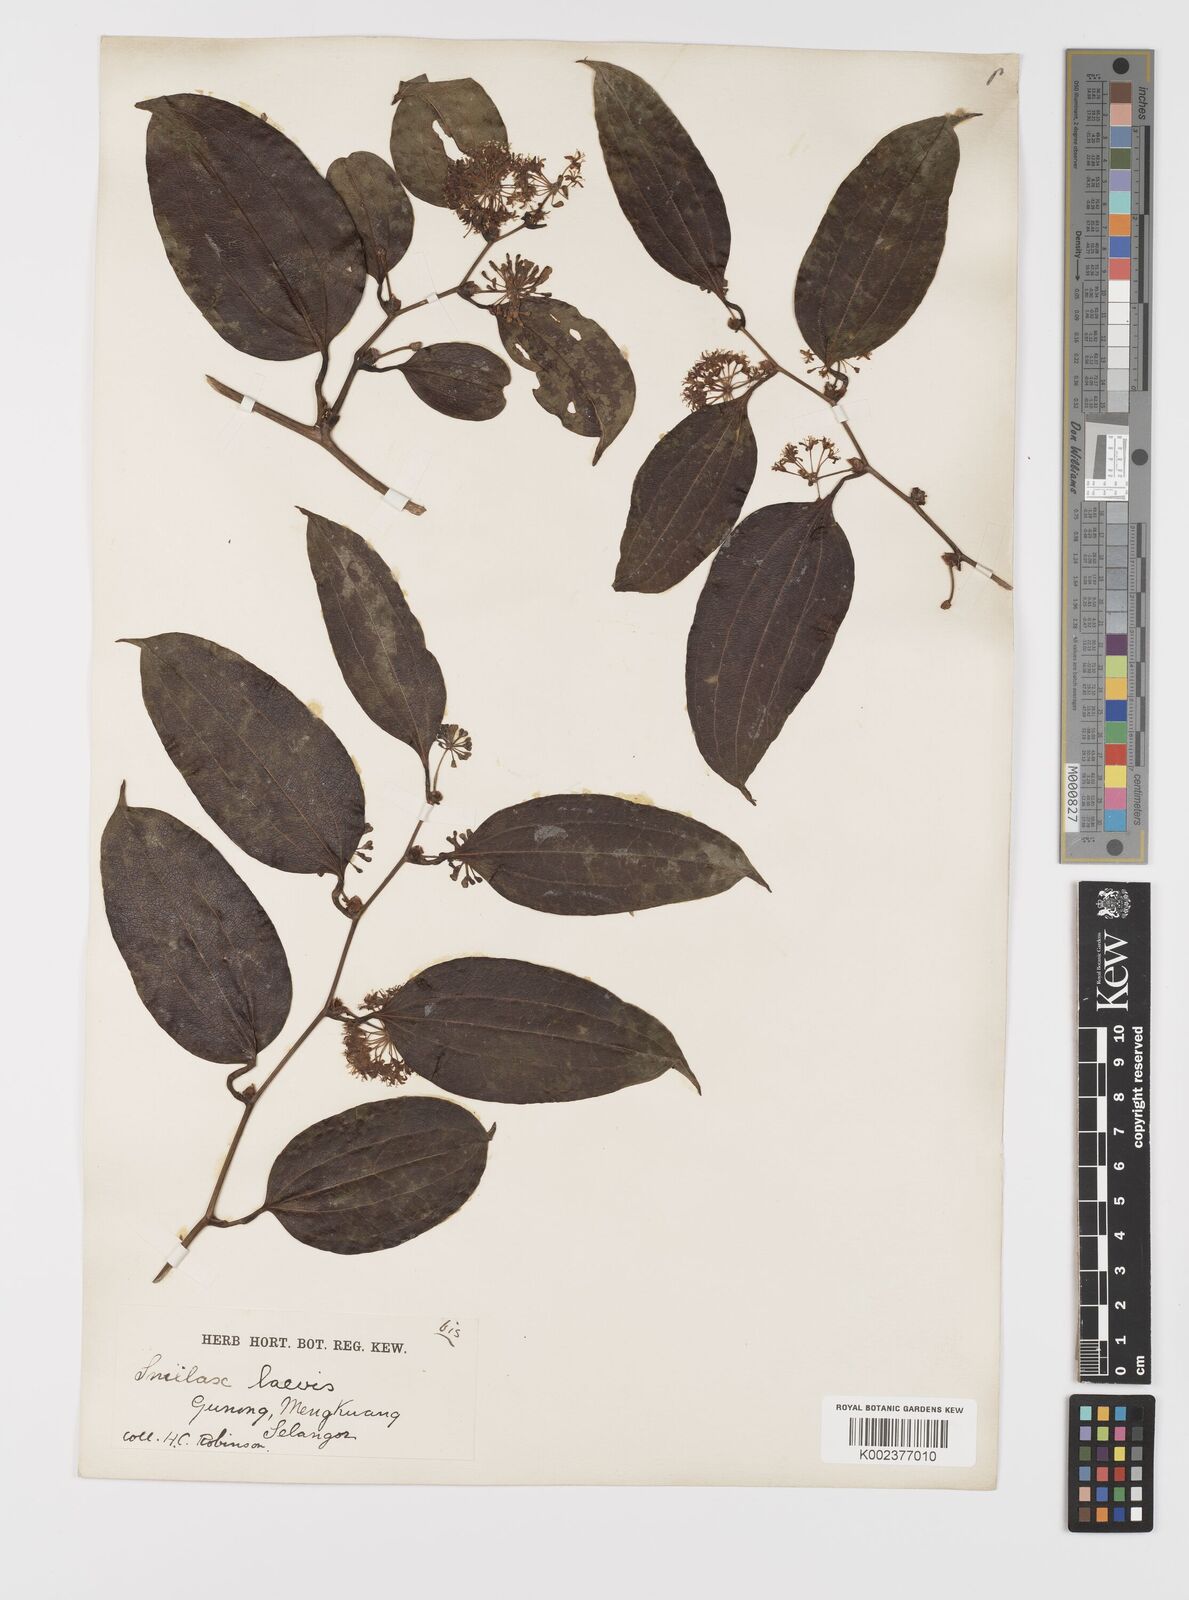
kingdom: Plantae
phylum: Tracheophyta
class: Liliopsida
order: Liliales
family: Smilacaceae
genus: Smilax
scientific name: Smilax laevis
